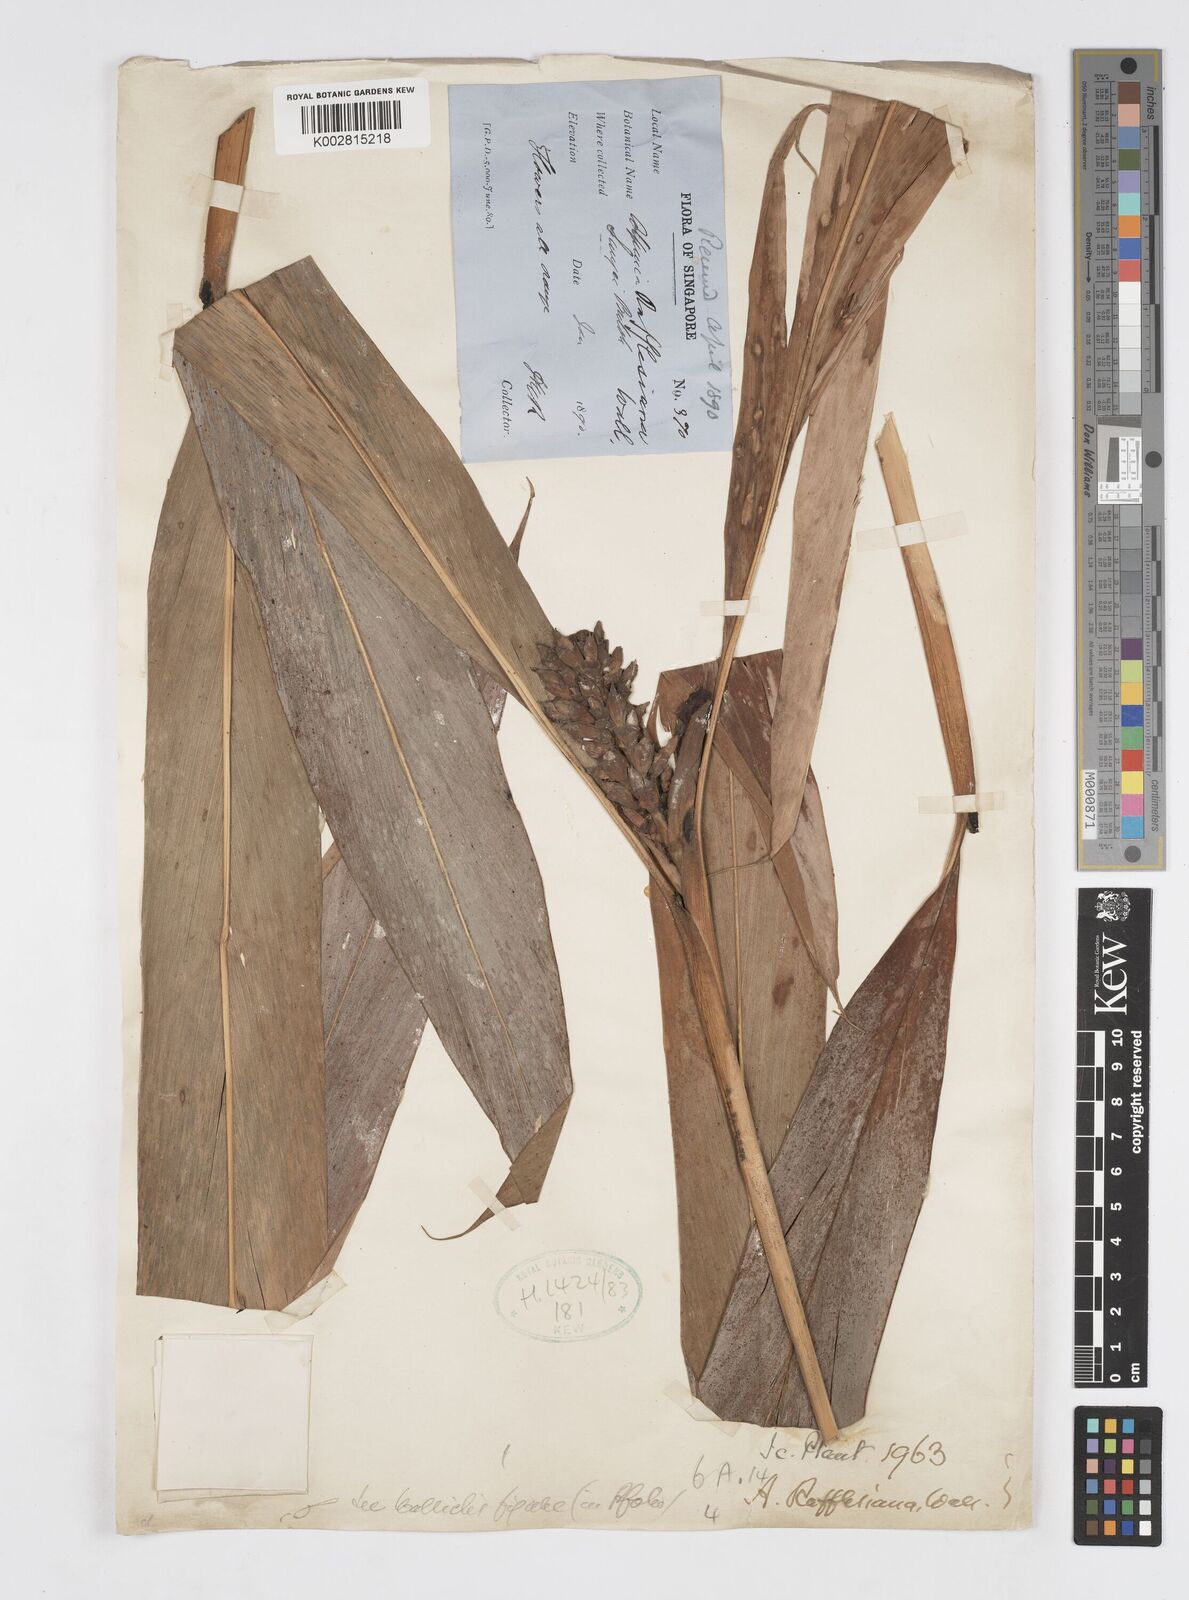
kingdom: Plantae
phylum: Tracheophyta
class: Liliopsida
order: Zingiberales
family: Zingiberaceae
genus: Alpinia
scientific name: Alpinia rafflesiana
